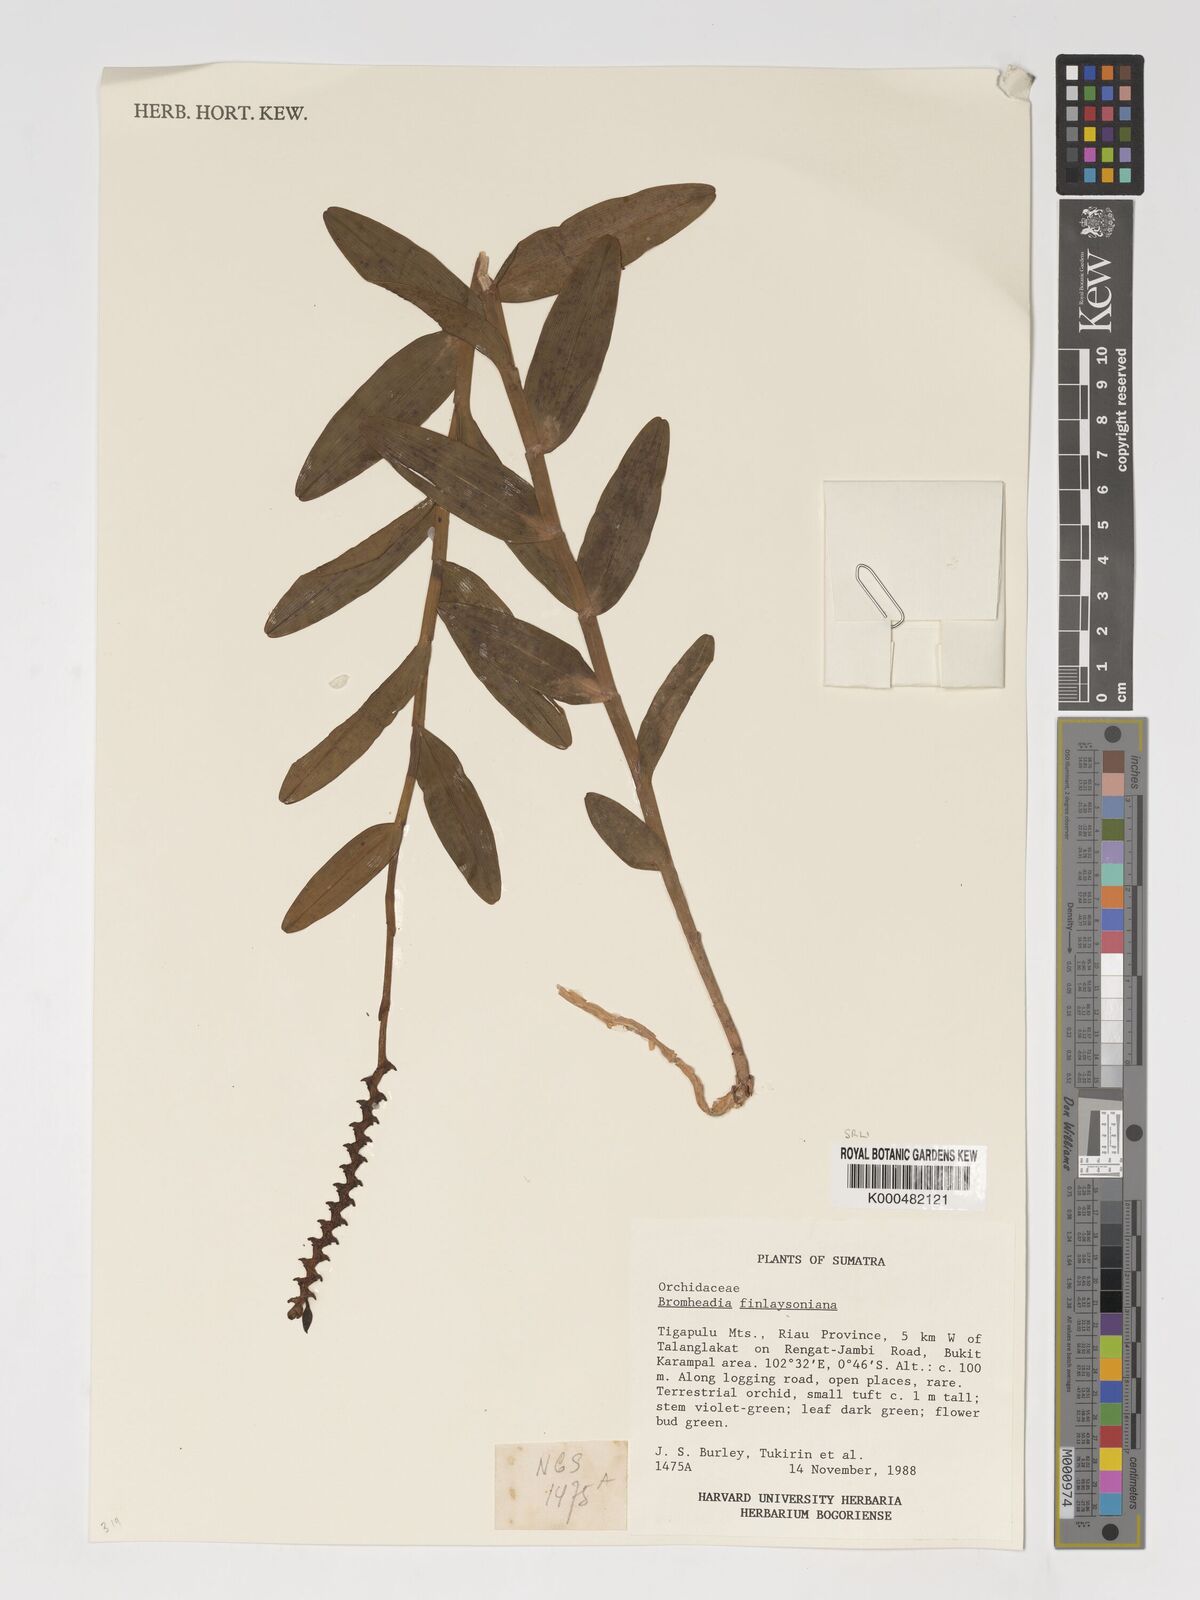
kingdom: Plantae
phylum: Tracheophyta
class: Liliopsida
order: Asparagales
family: Orchidaceae
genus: Bromheadia
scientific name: Bromheadia finlaysoniana
